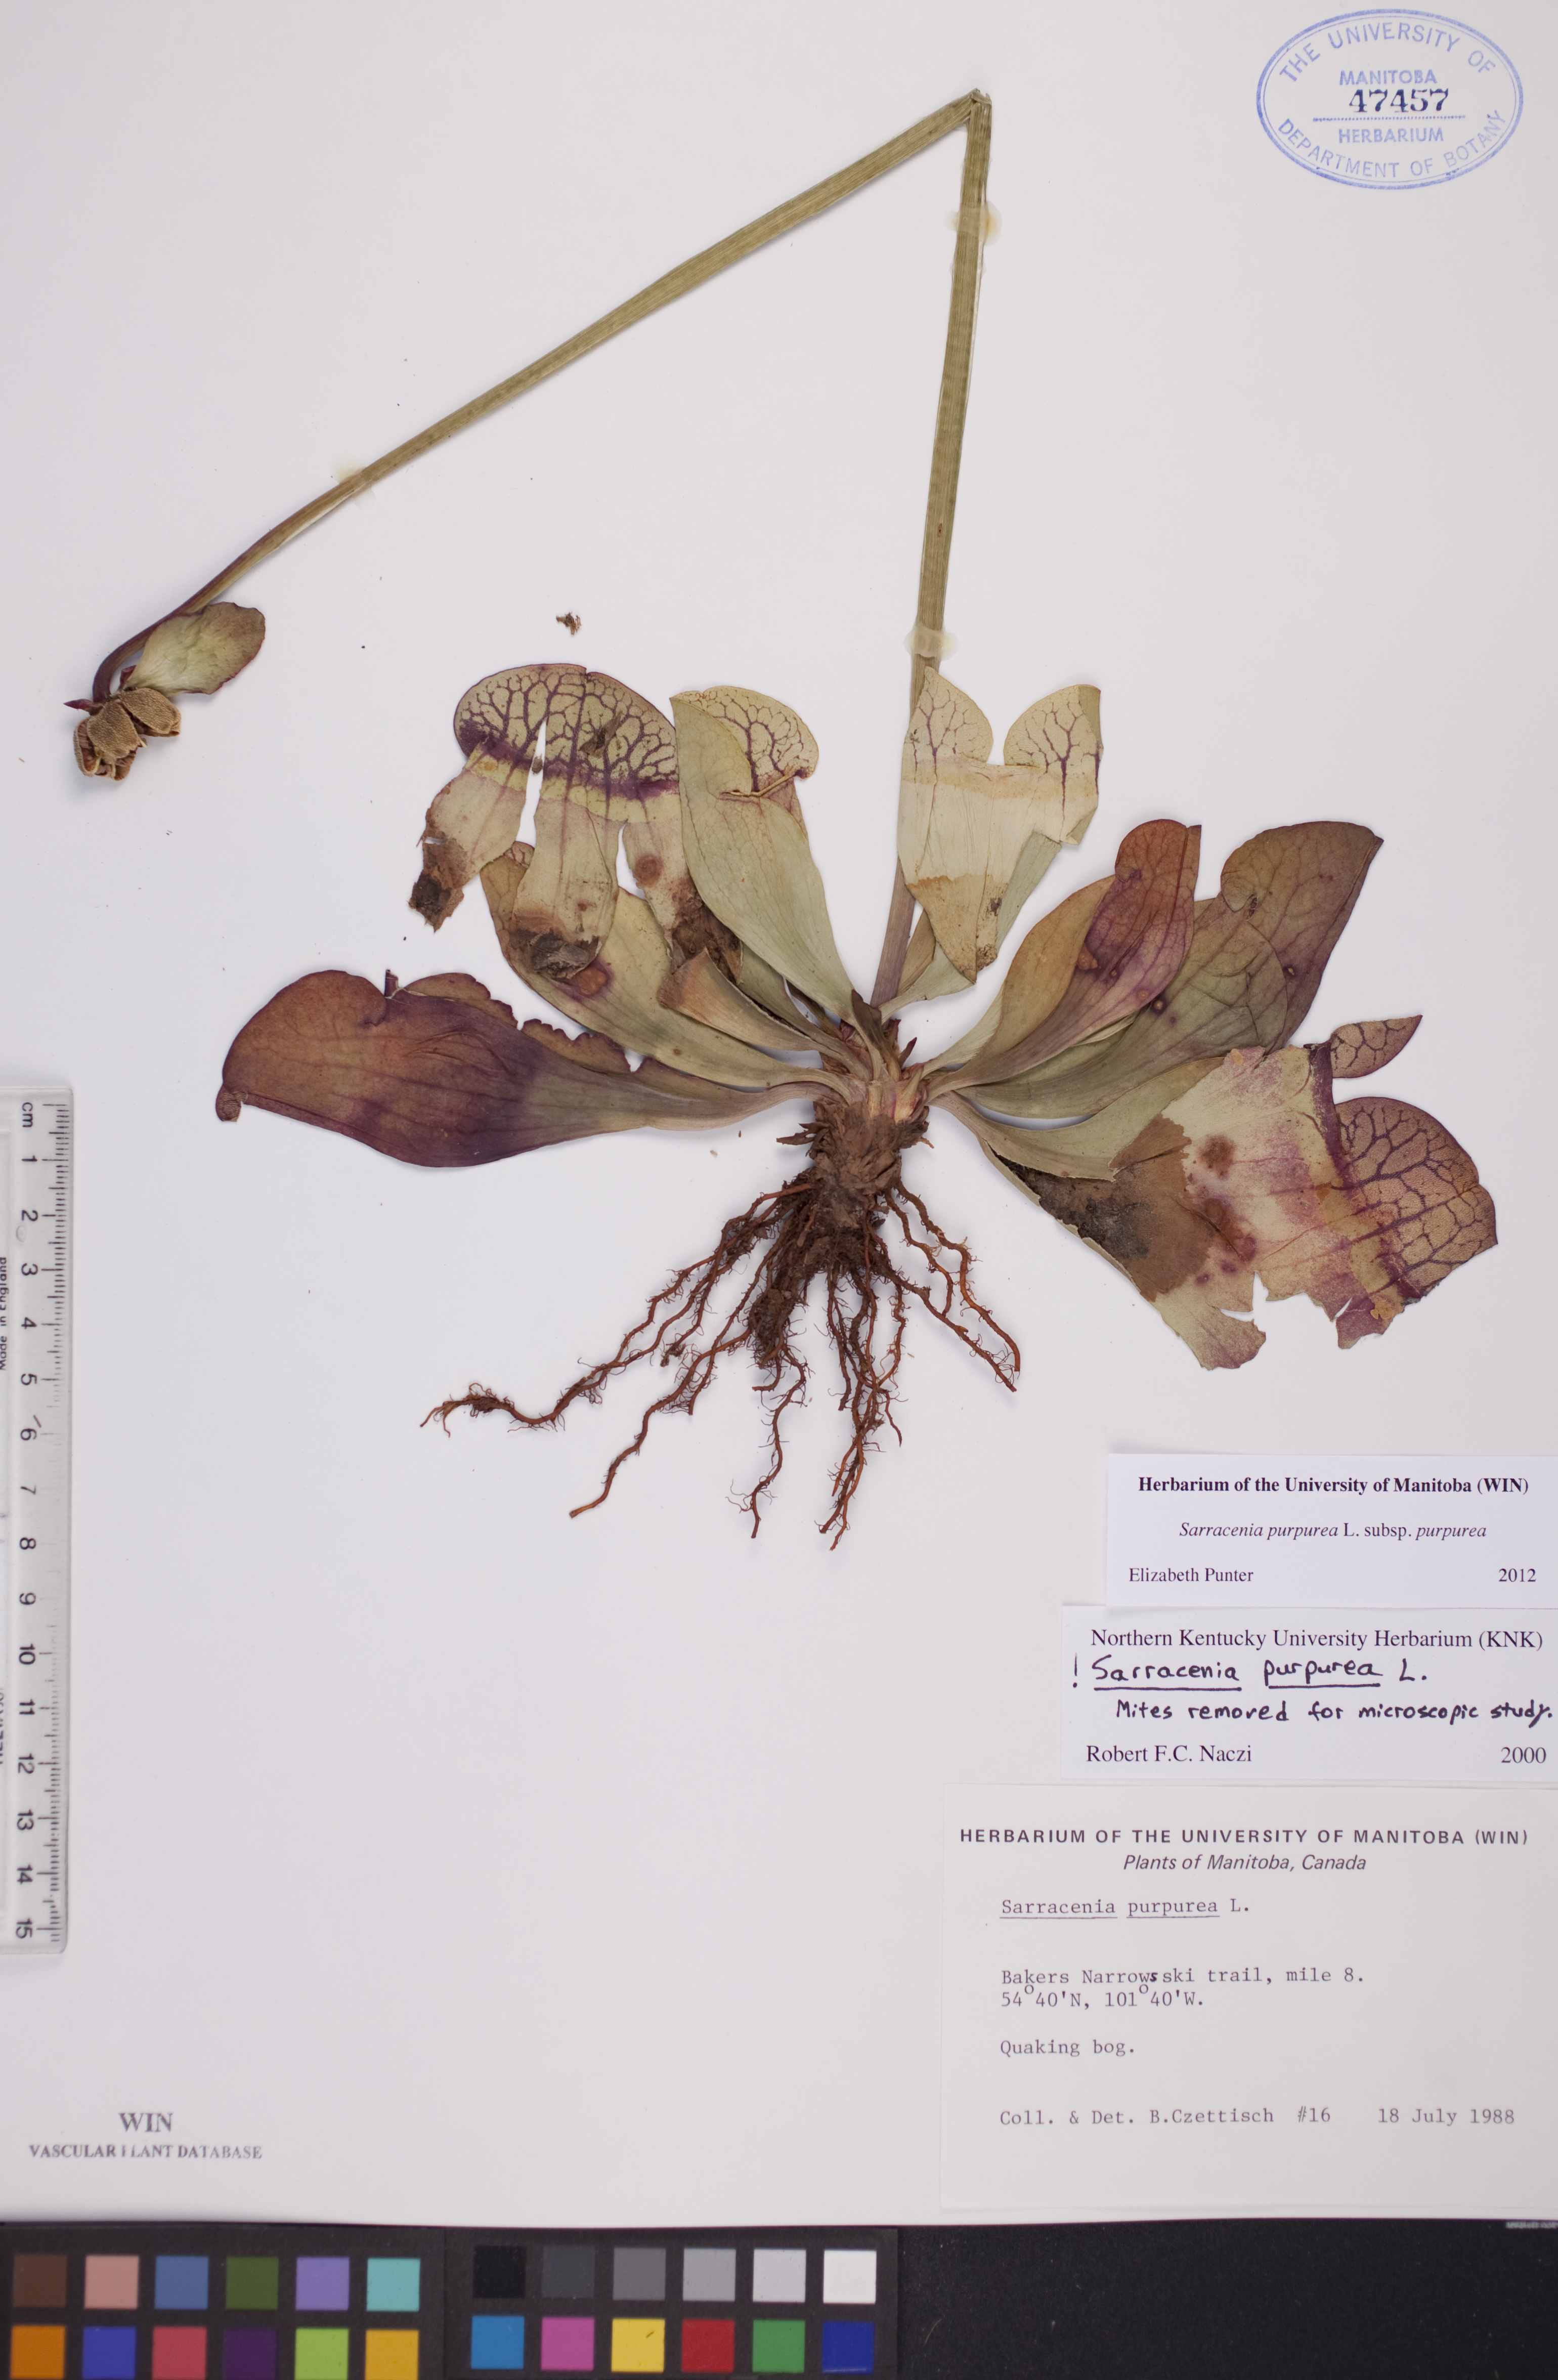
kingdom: Plantae
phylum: Tracheophyta
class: Magnoliopsida
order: Ericales
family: Sarraceniaceae
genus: Sarracenia
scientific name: Sarracenia purpurea
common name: Pitcherplant
